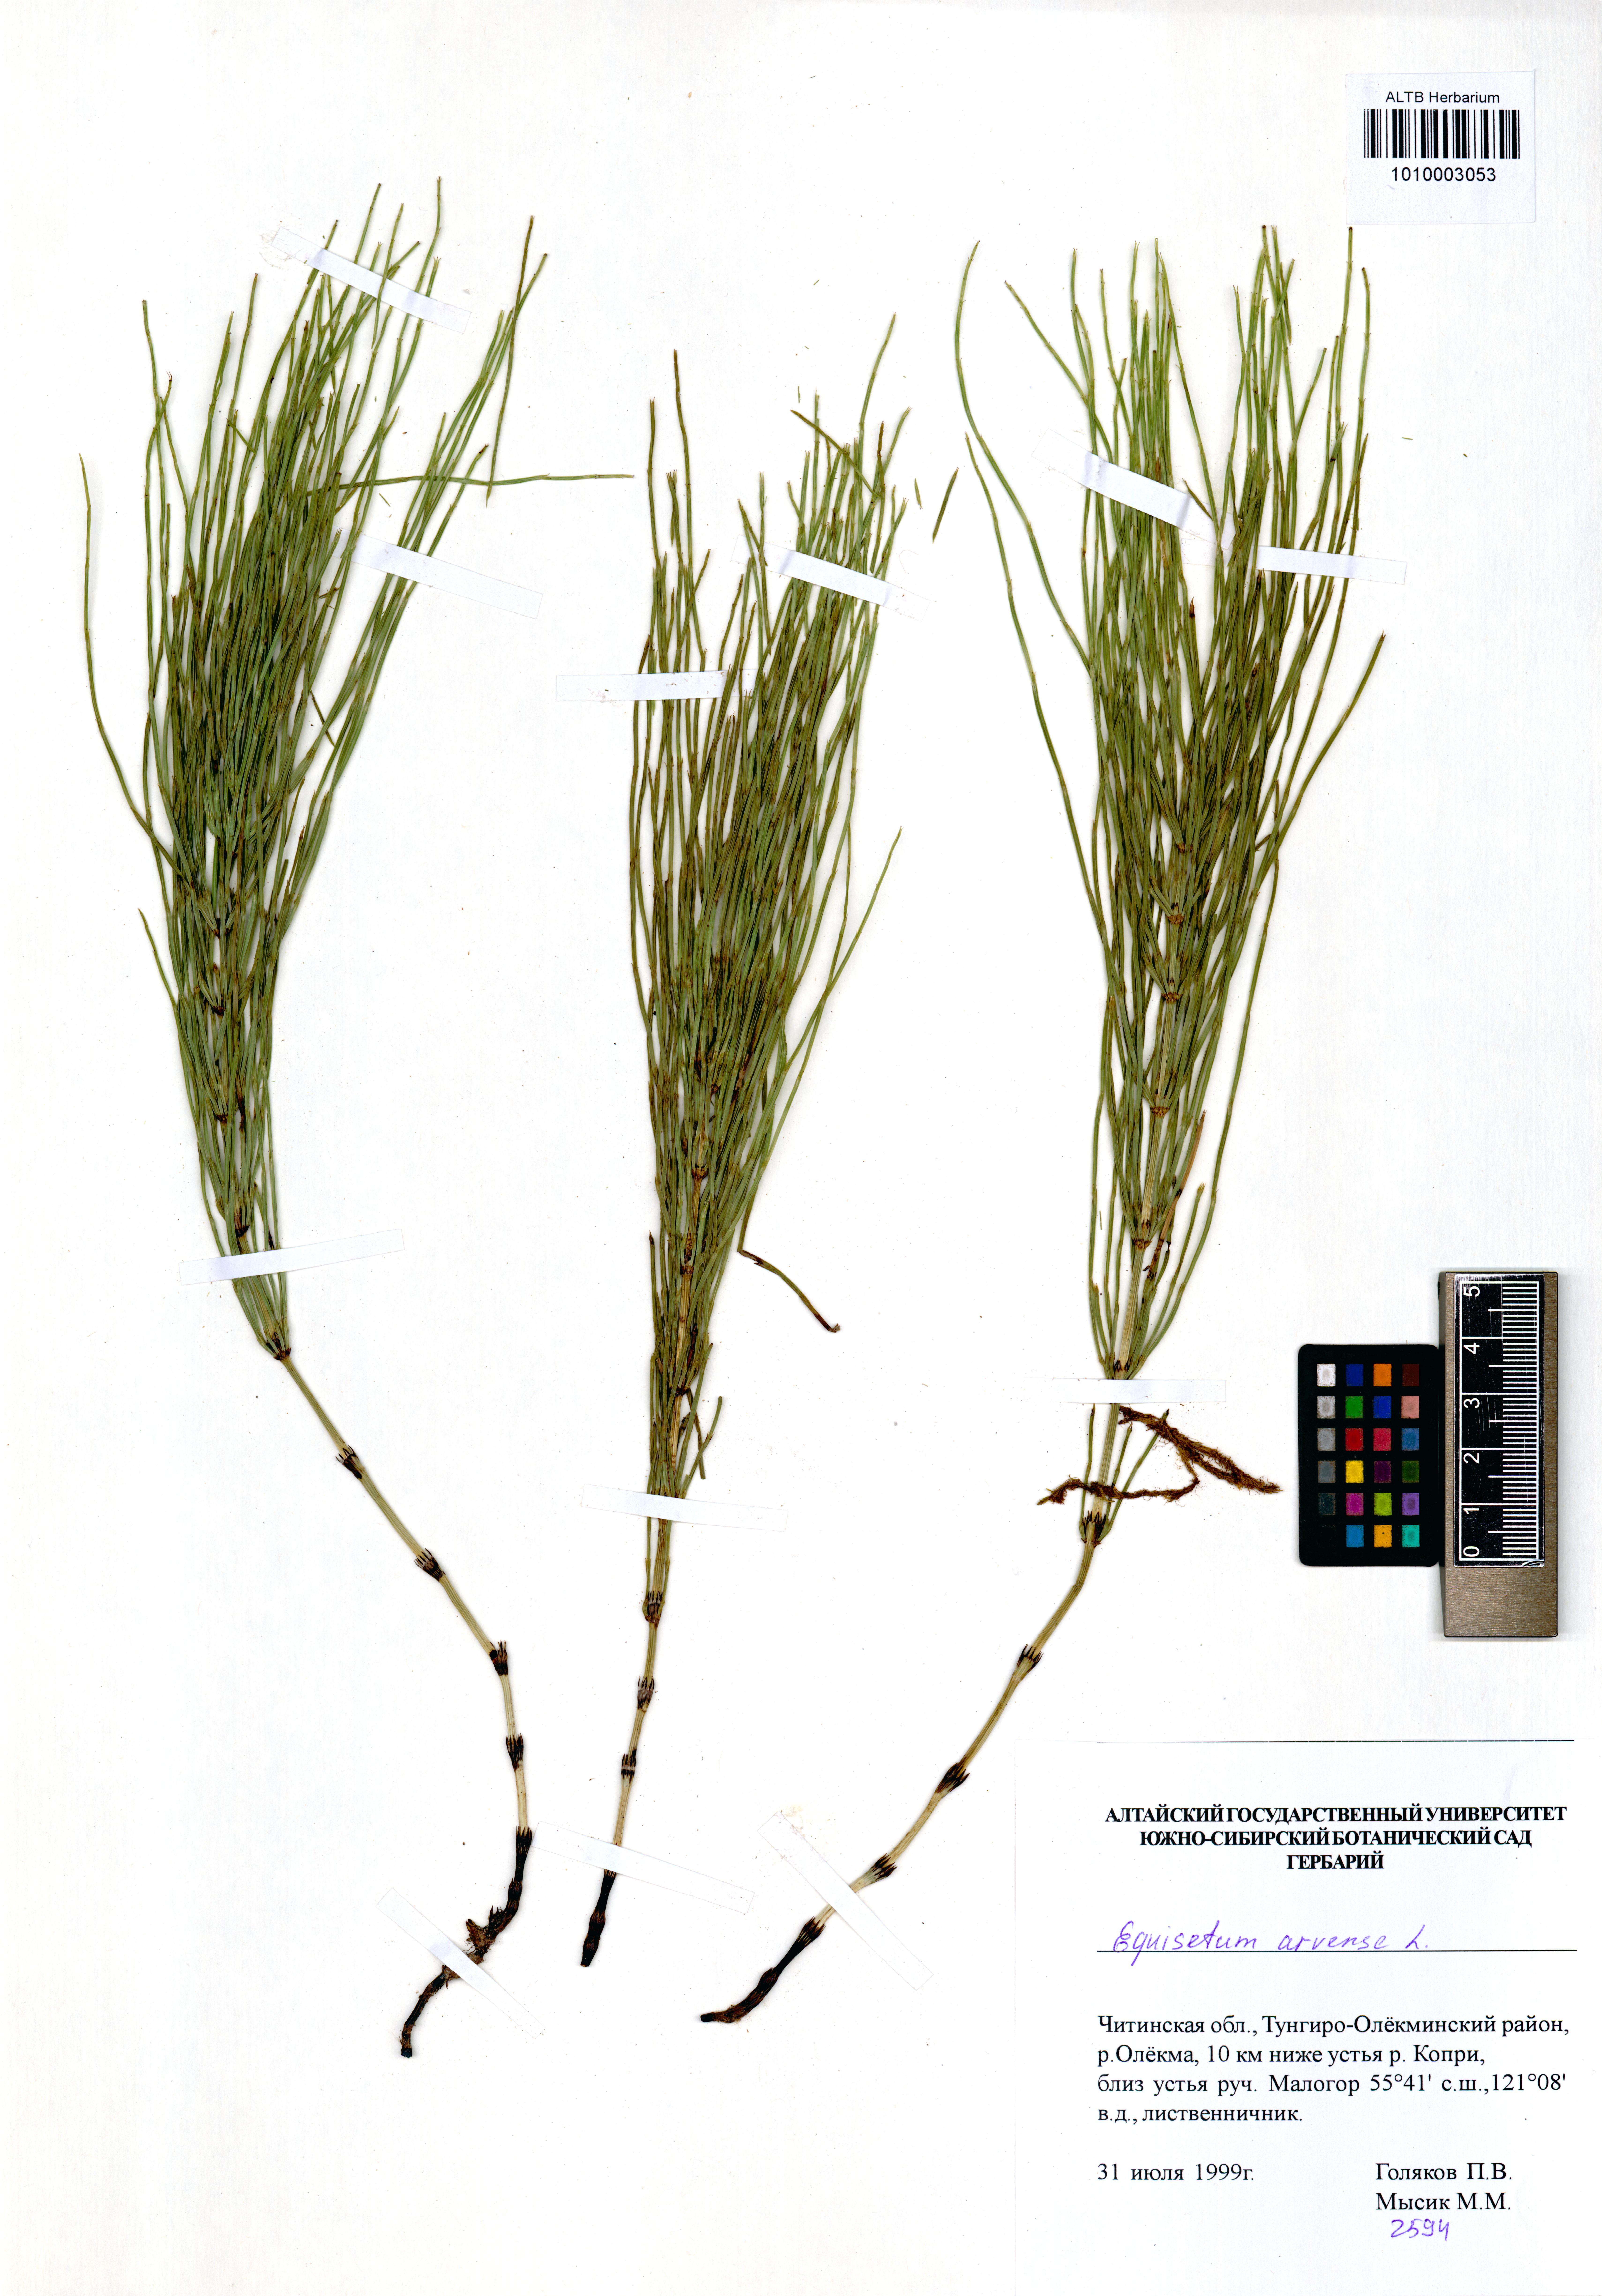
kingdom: Plantae
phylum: Tracheophyta
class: Polypodiopsida
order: Equisetales
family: Equisetaceae
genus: Equisetum
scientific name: Equisetum arvense
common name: Field horsetail
